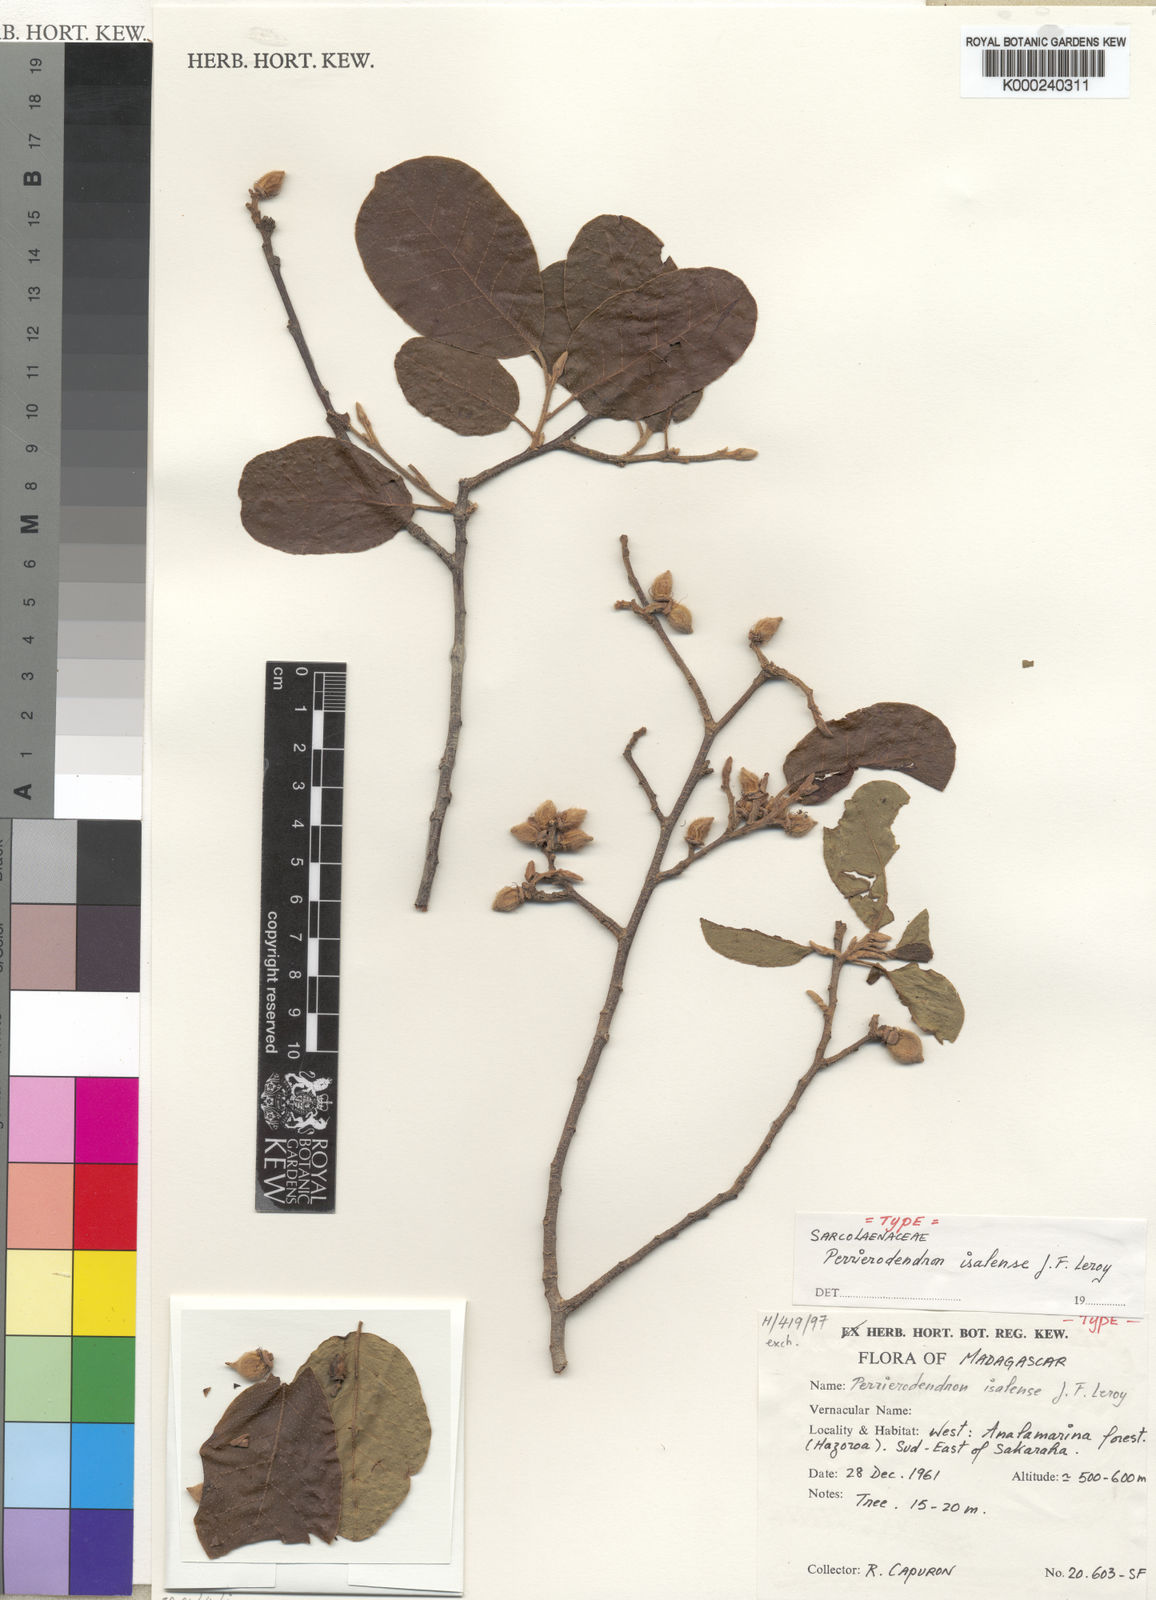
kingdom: Plantae
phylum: Tracheophyta
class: Magnoliopsida
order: Malvales
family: Sarcolaenaceae
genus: Perrierodendron
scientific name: Perrierodendron
